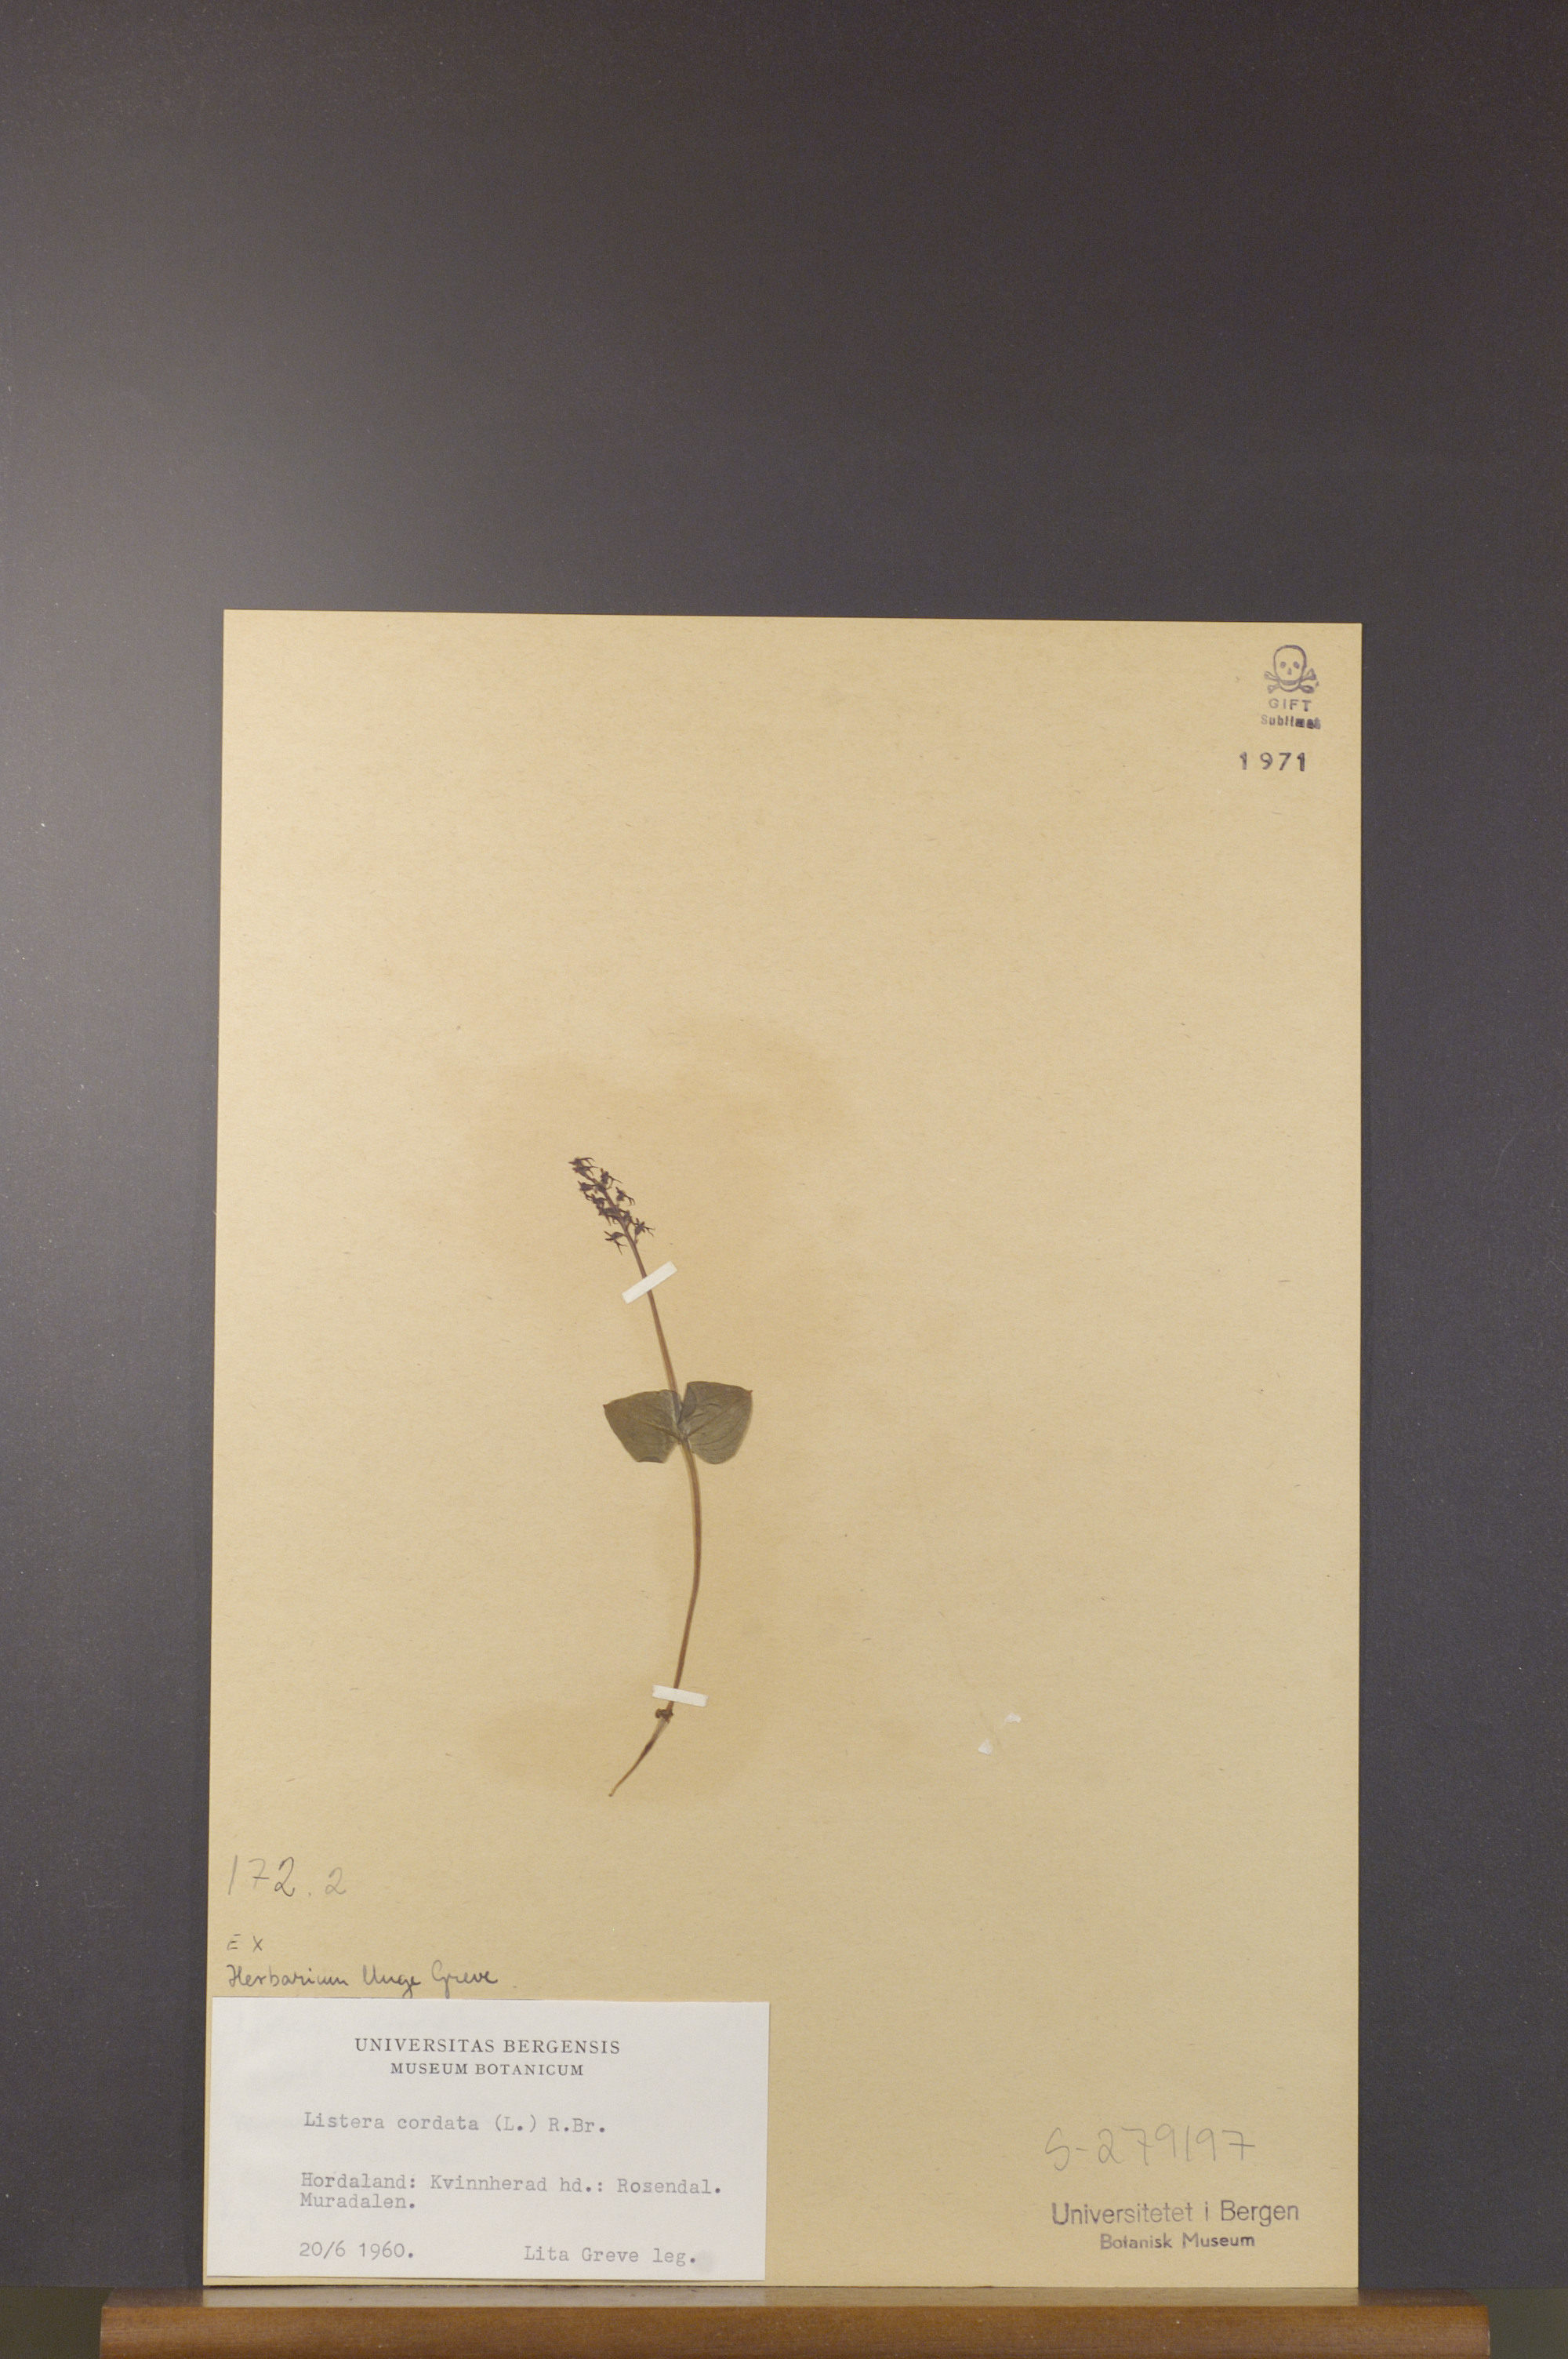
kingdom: Plantae
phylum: Tracheophyta
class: Liliopsida
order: Asparagales
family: Orchidaceae
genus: Neottia
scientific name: Neottia cordata
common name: Lesser twayblade
